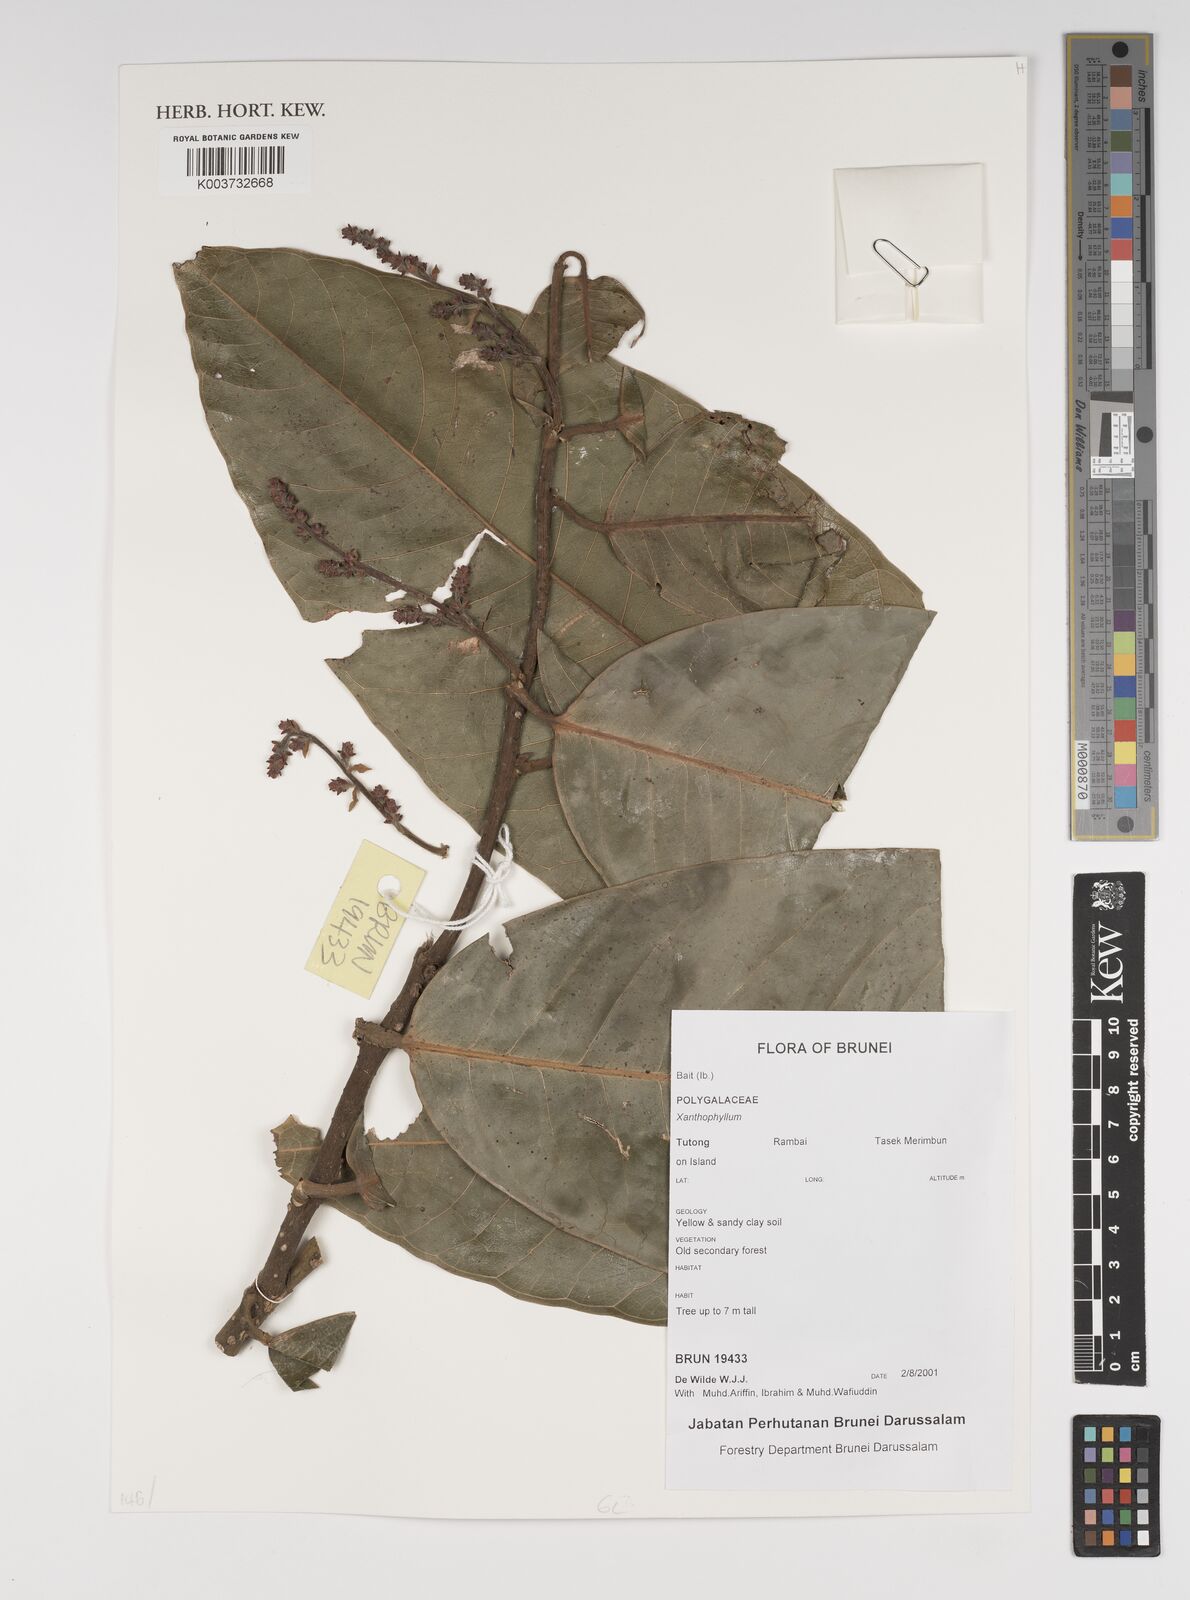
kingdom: Plantae
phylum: Tracheophyta
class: Magnoliopsida
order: Fabales
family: Polygalaceae
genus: Xanthophyllum
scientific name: Xanthophyllum
